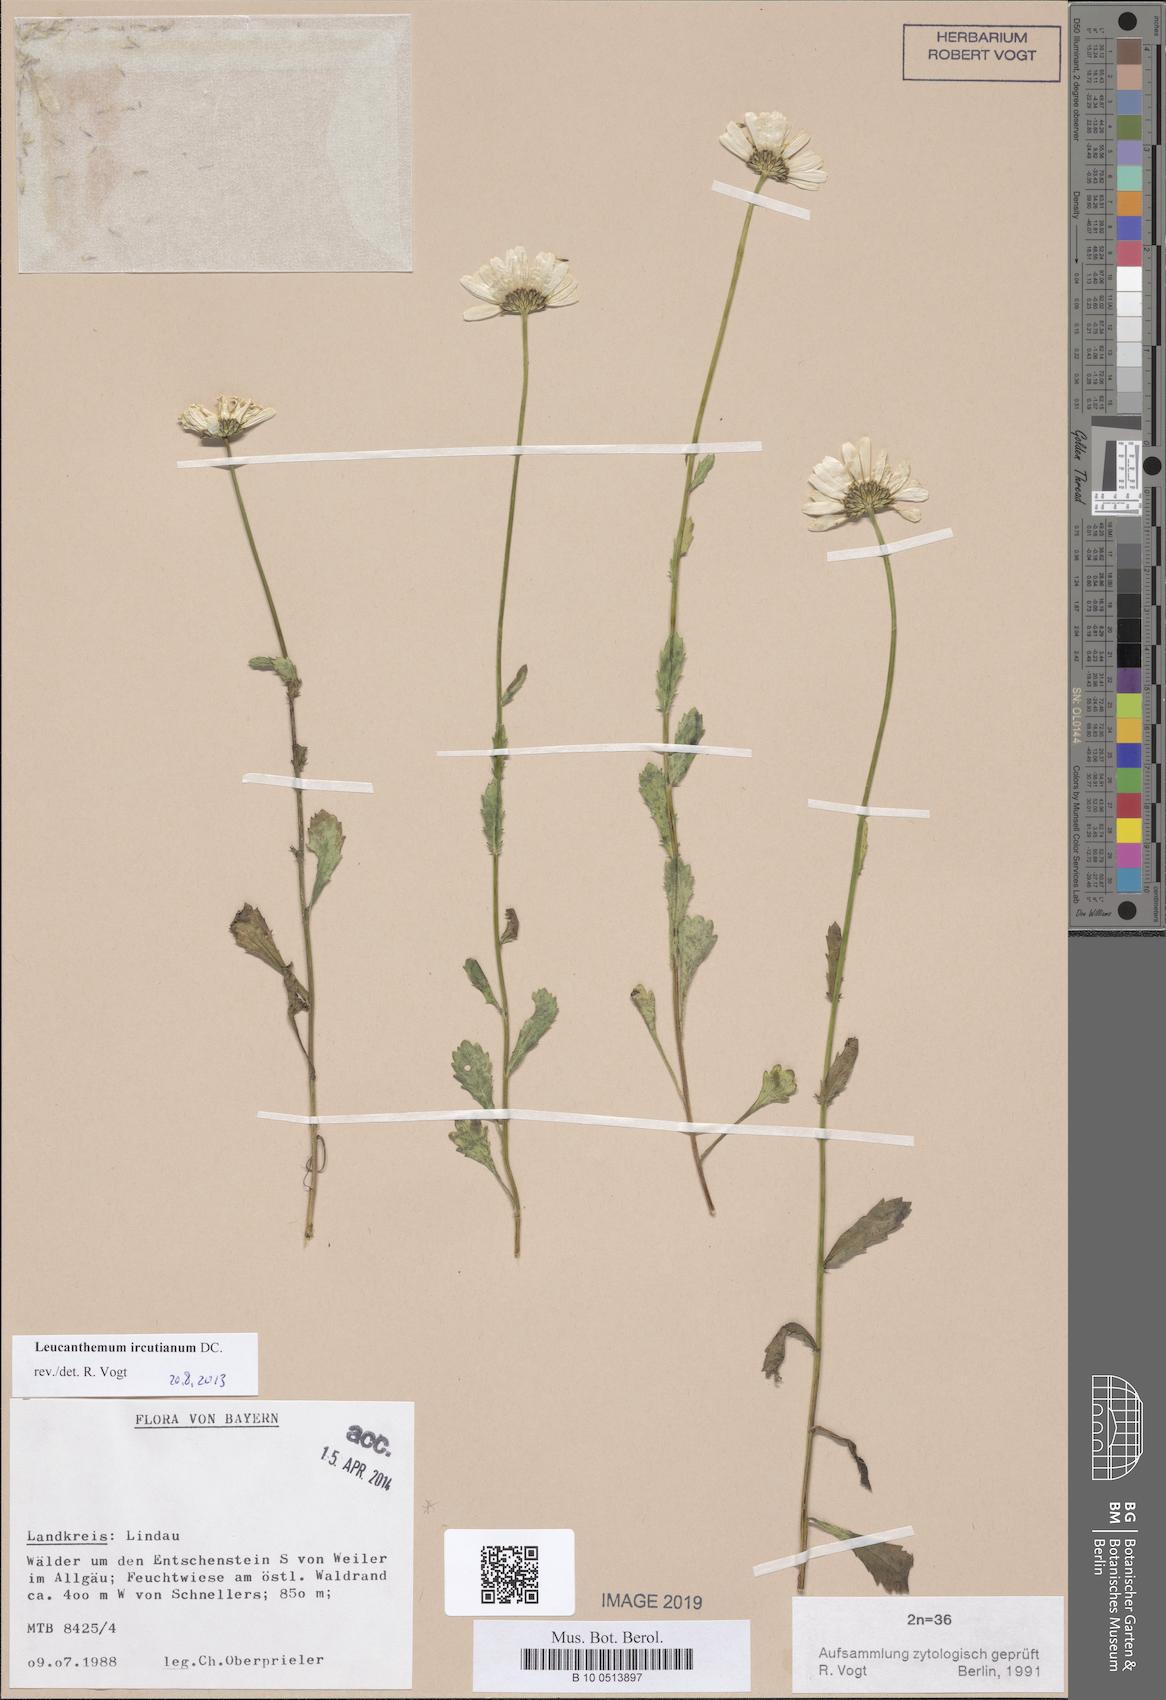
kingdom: Plantae
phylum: Tracheophyta
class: Magnoliopsida
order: Asterales
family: Asteraceae
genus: Leucanthemum
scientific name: Leucanthemum ircutianum
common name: Daisy
